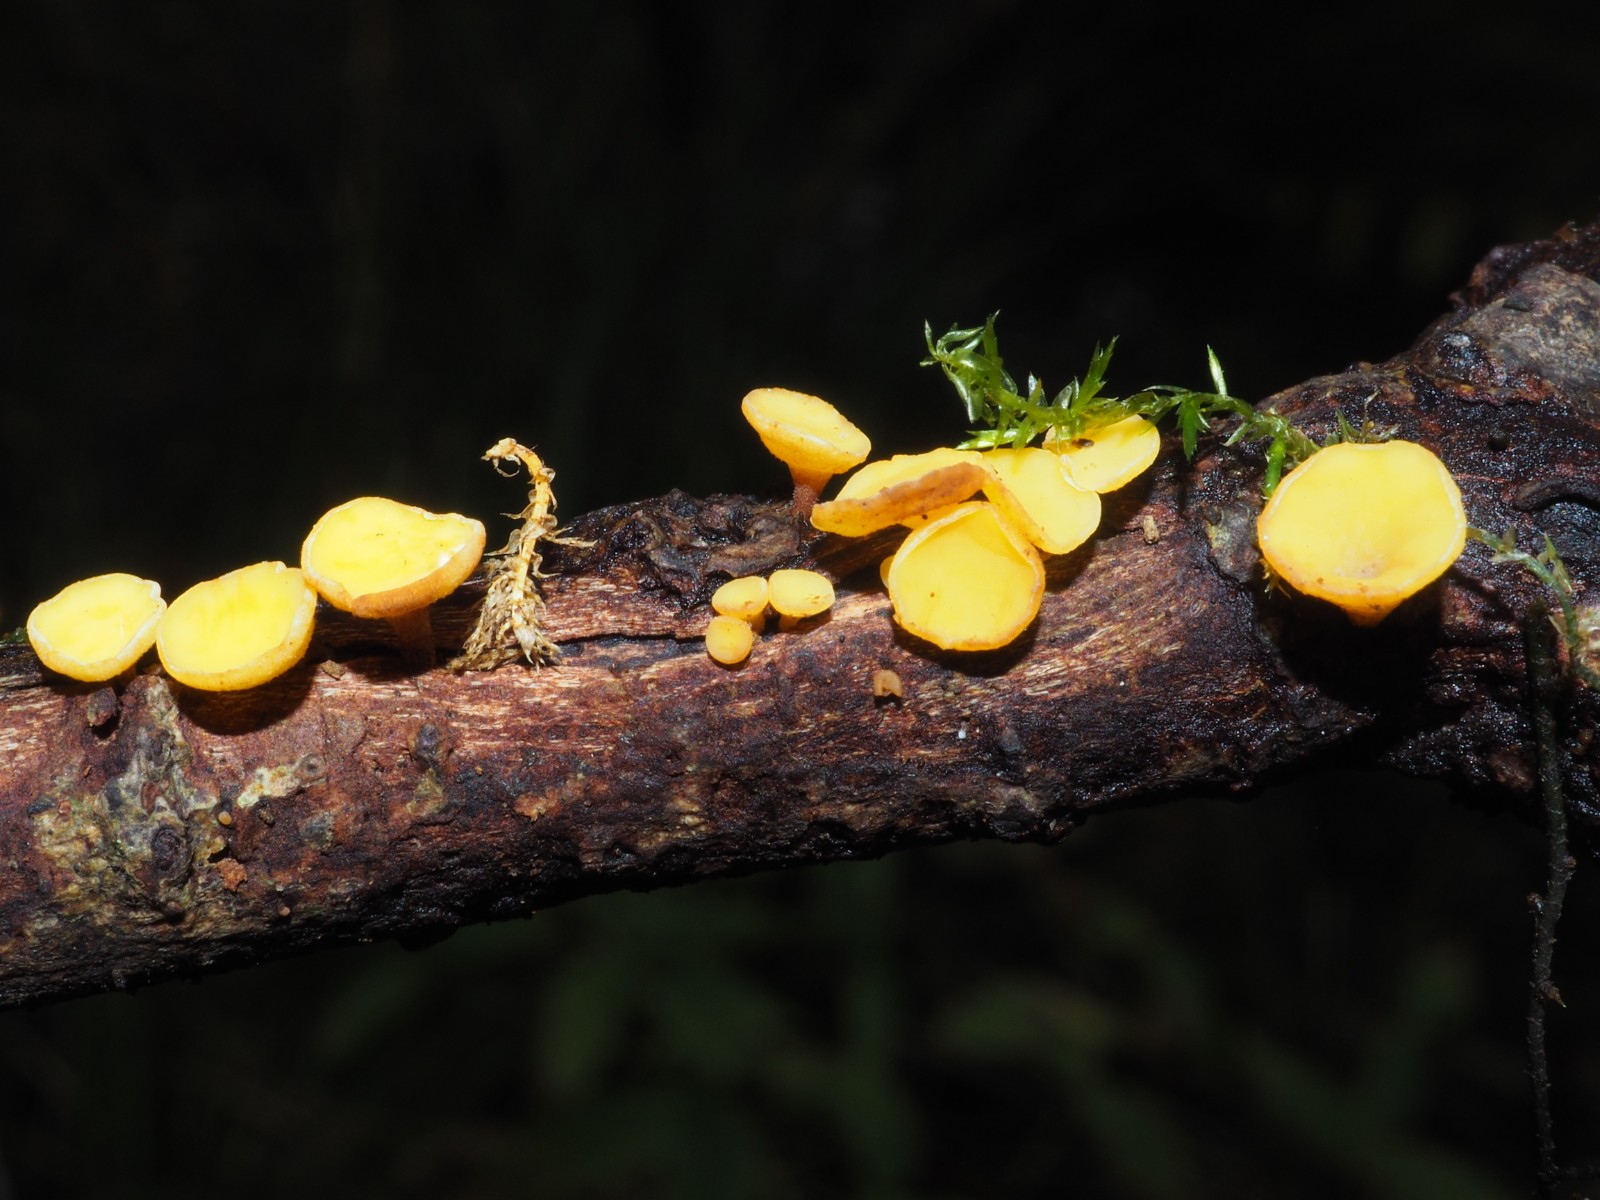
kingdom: Fungi
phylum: Ascomycota
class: Leotiomycetes
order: Helotiales
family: Helotiaceae
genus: Hymenoscyphus
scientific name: Hymenoscyphus calyculus
